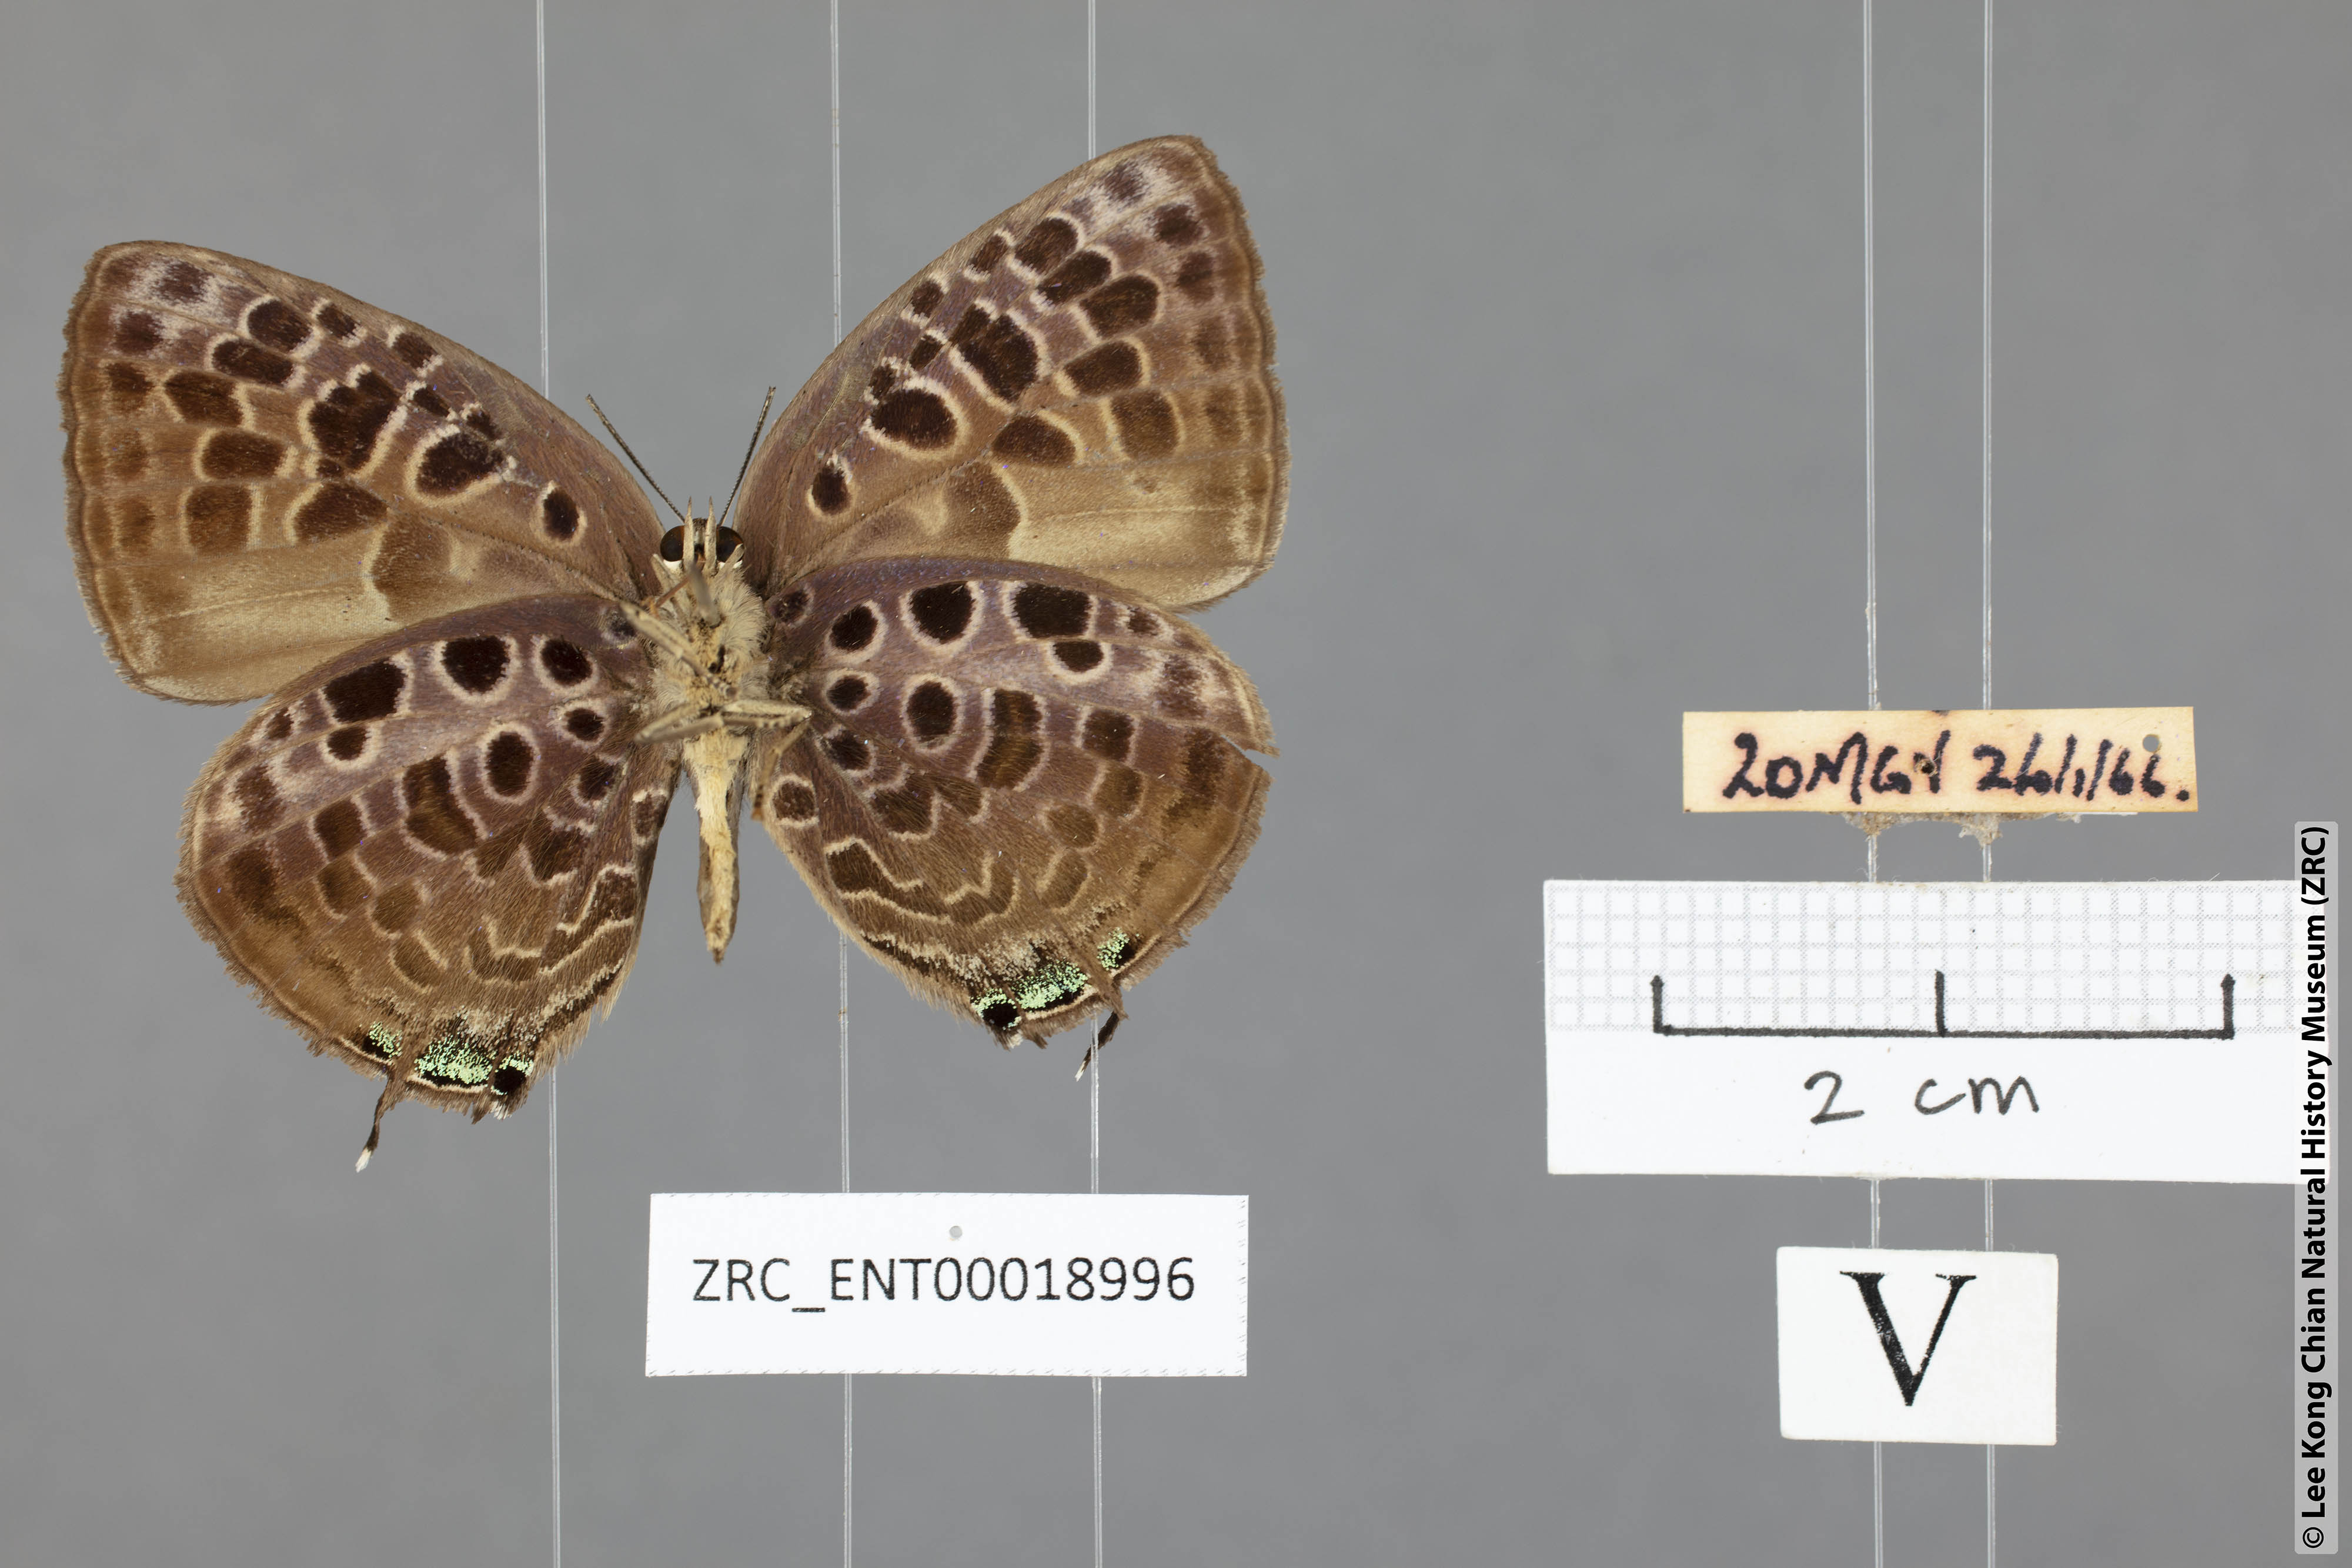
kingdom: Animalia
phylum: Arthropoda
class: Insecta
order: Lepidoptera
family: Lycaenidae
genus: Arhopala
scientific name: Arhopala achelous
